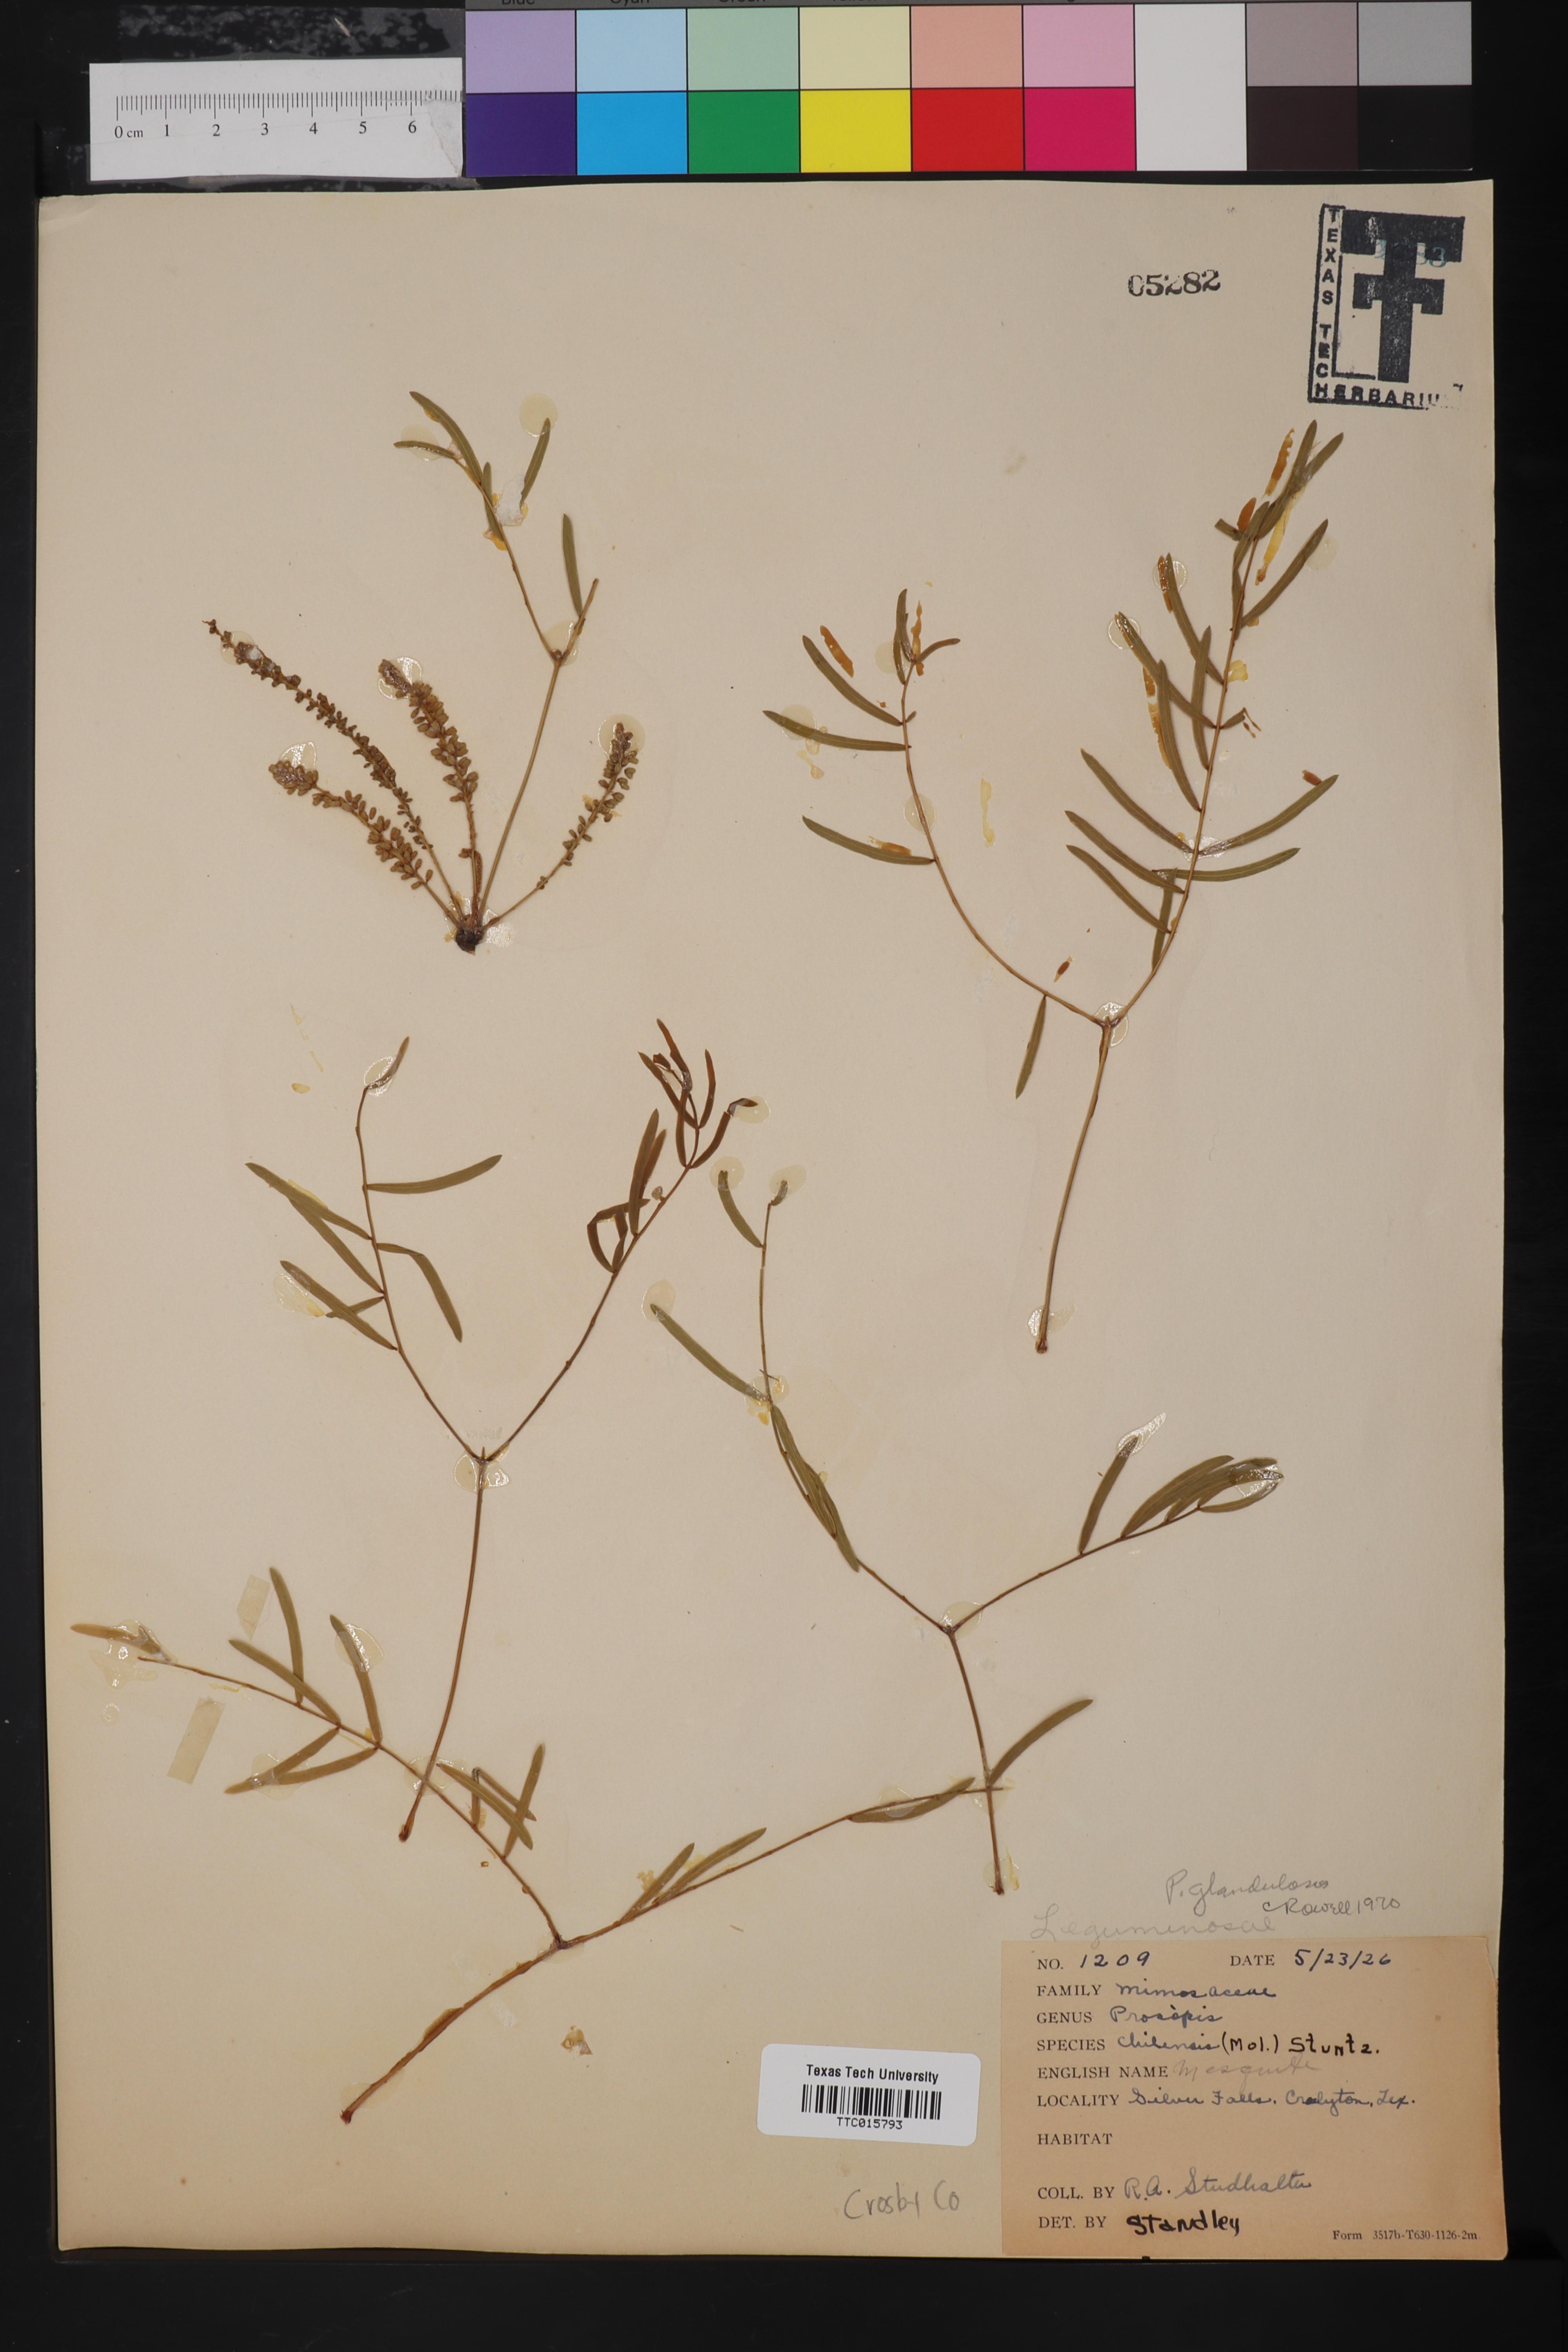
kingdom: Plantae
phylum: Tracheophyta
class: Magnoliopsida
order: Fabales
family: Fabaceae
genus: Prosopis
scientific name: Prosopis glandulosa
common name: Honey mesquite
